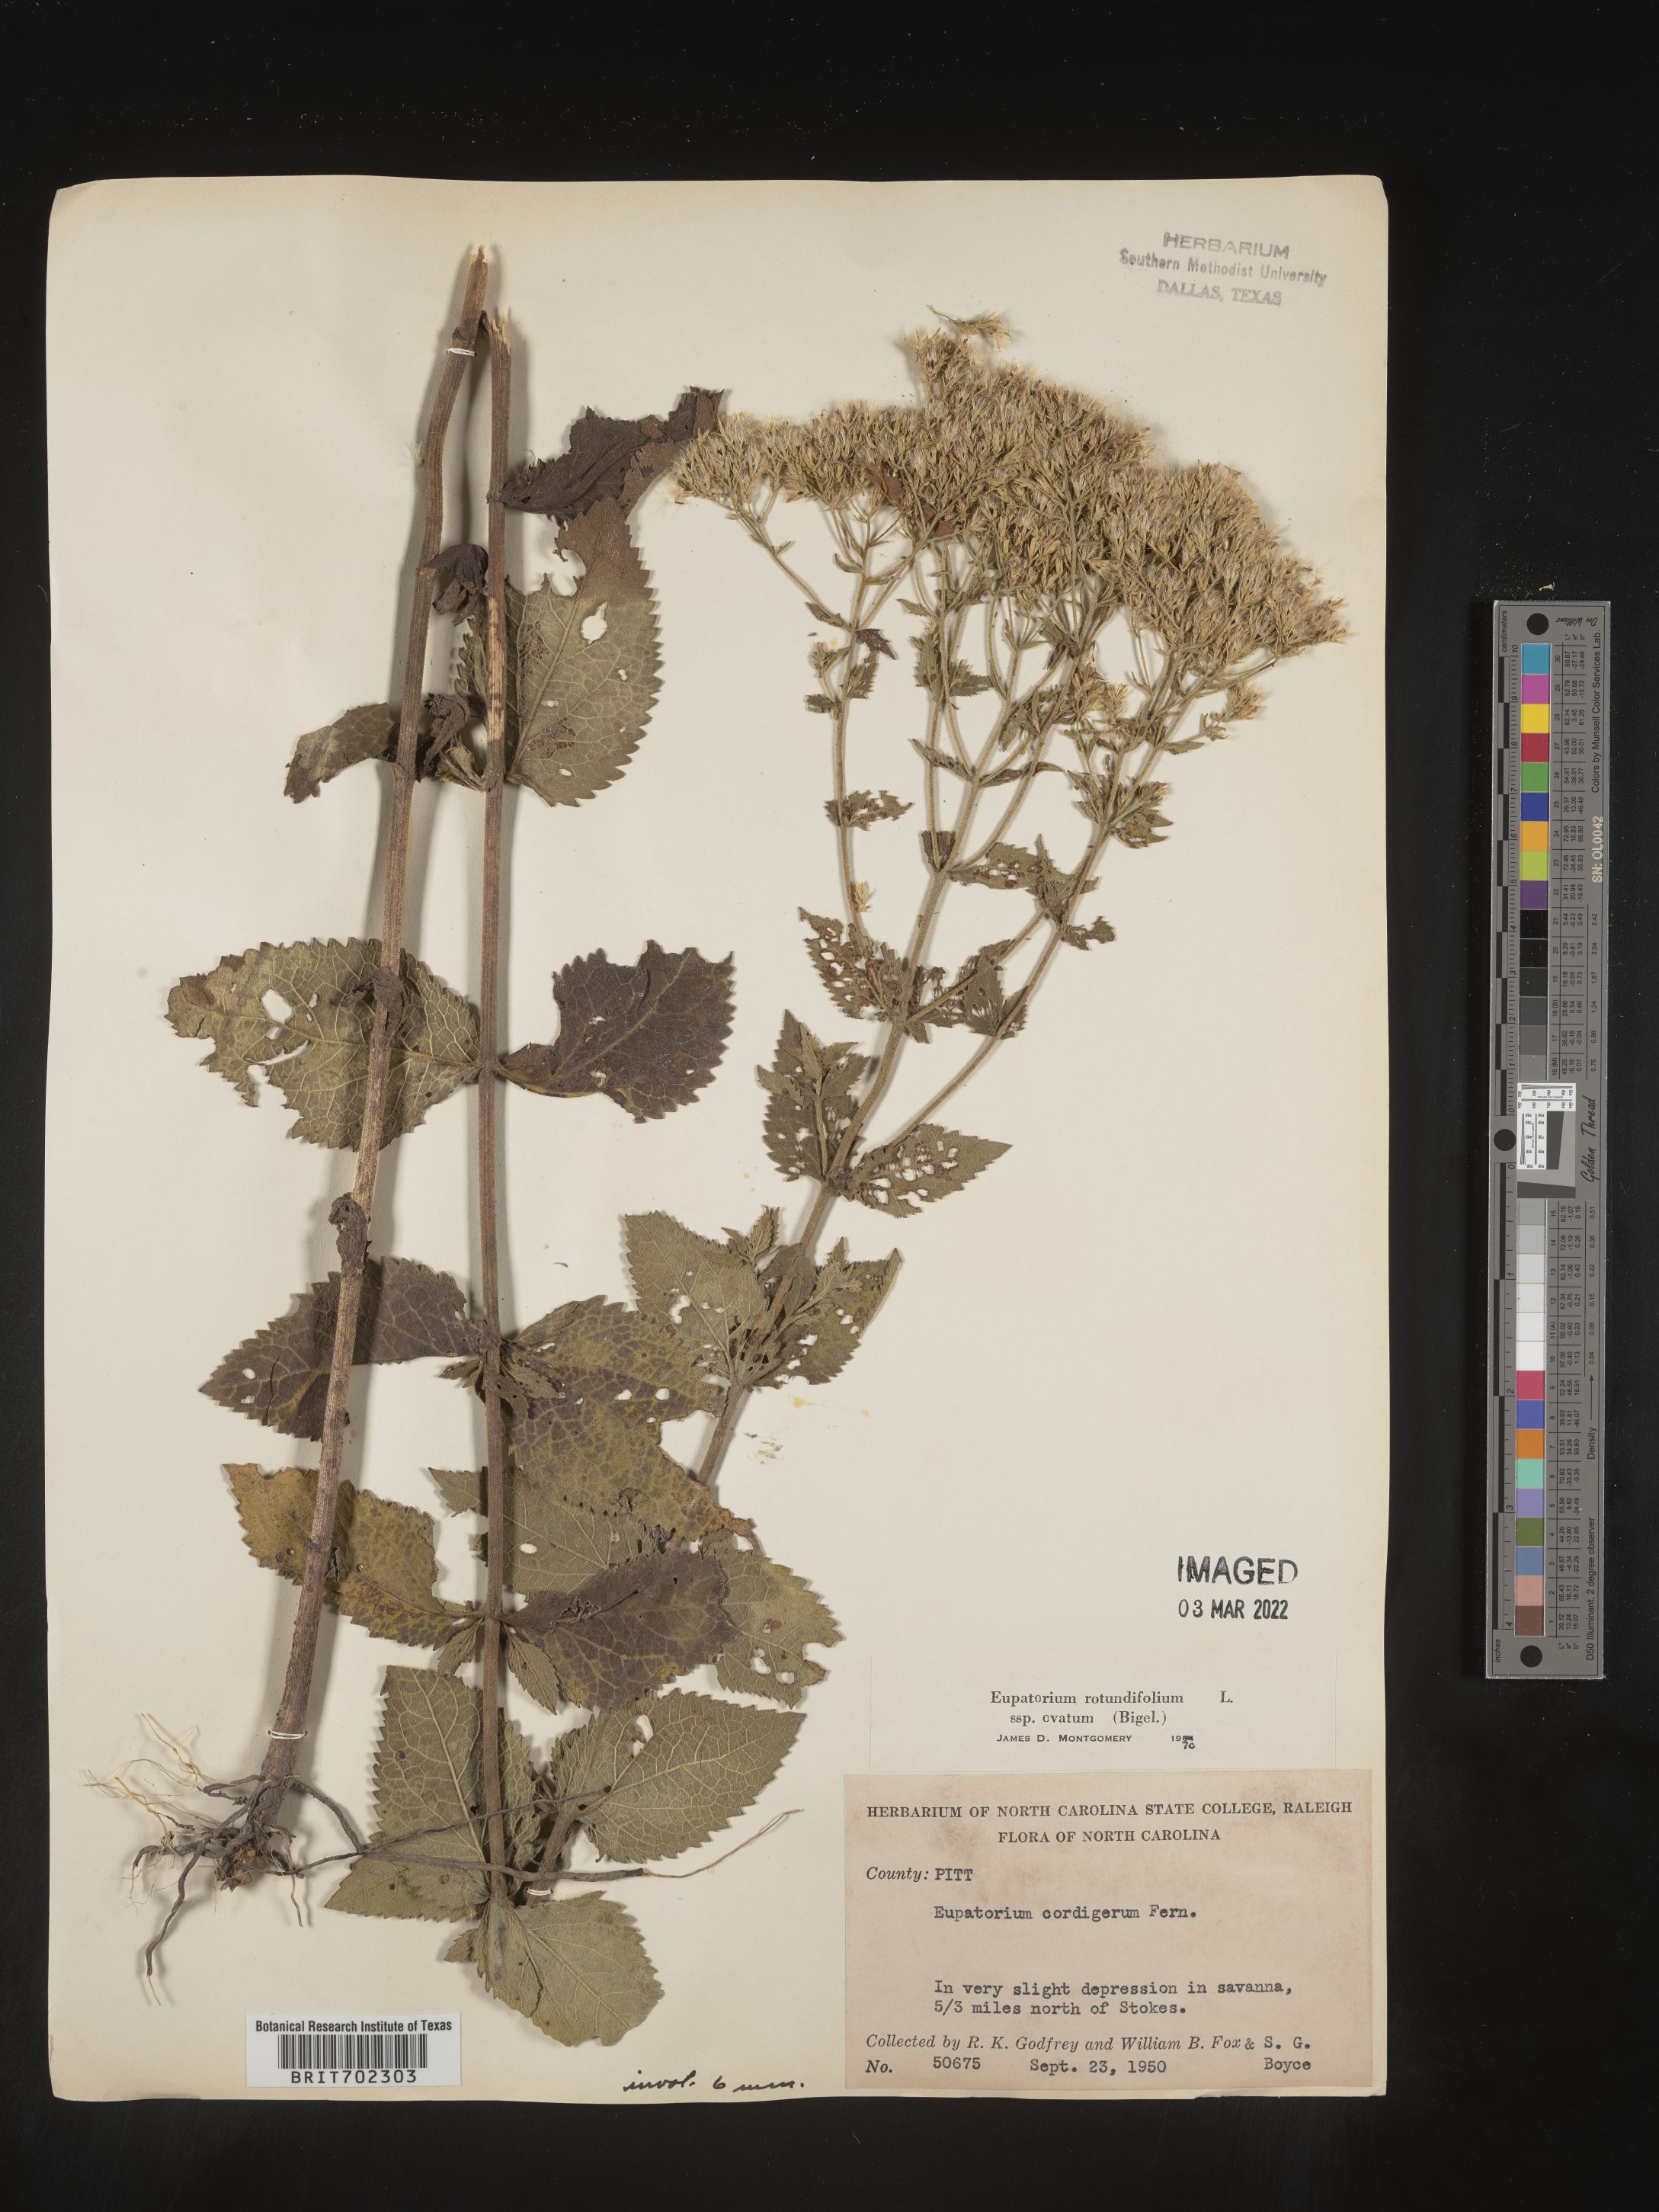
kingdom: Plantae
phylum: Tracheophyta
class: Magnoliopsida
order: Asterales
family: Asteraceae
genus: Eupatorium
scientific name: Eupatorium rotundifolium
